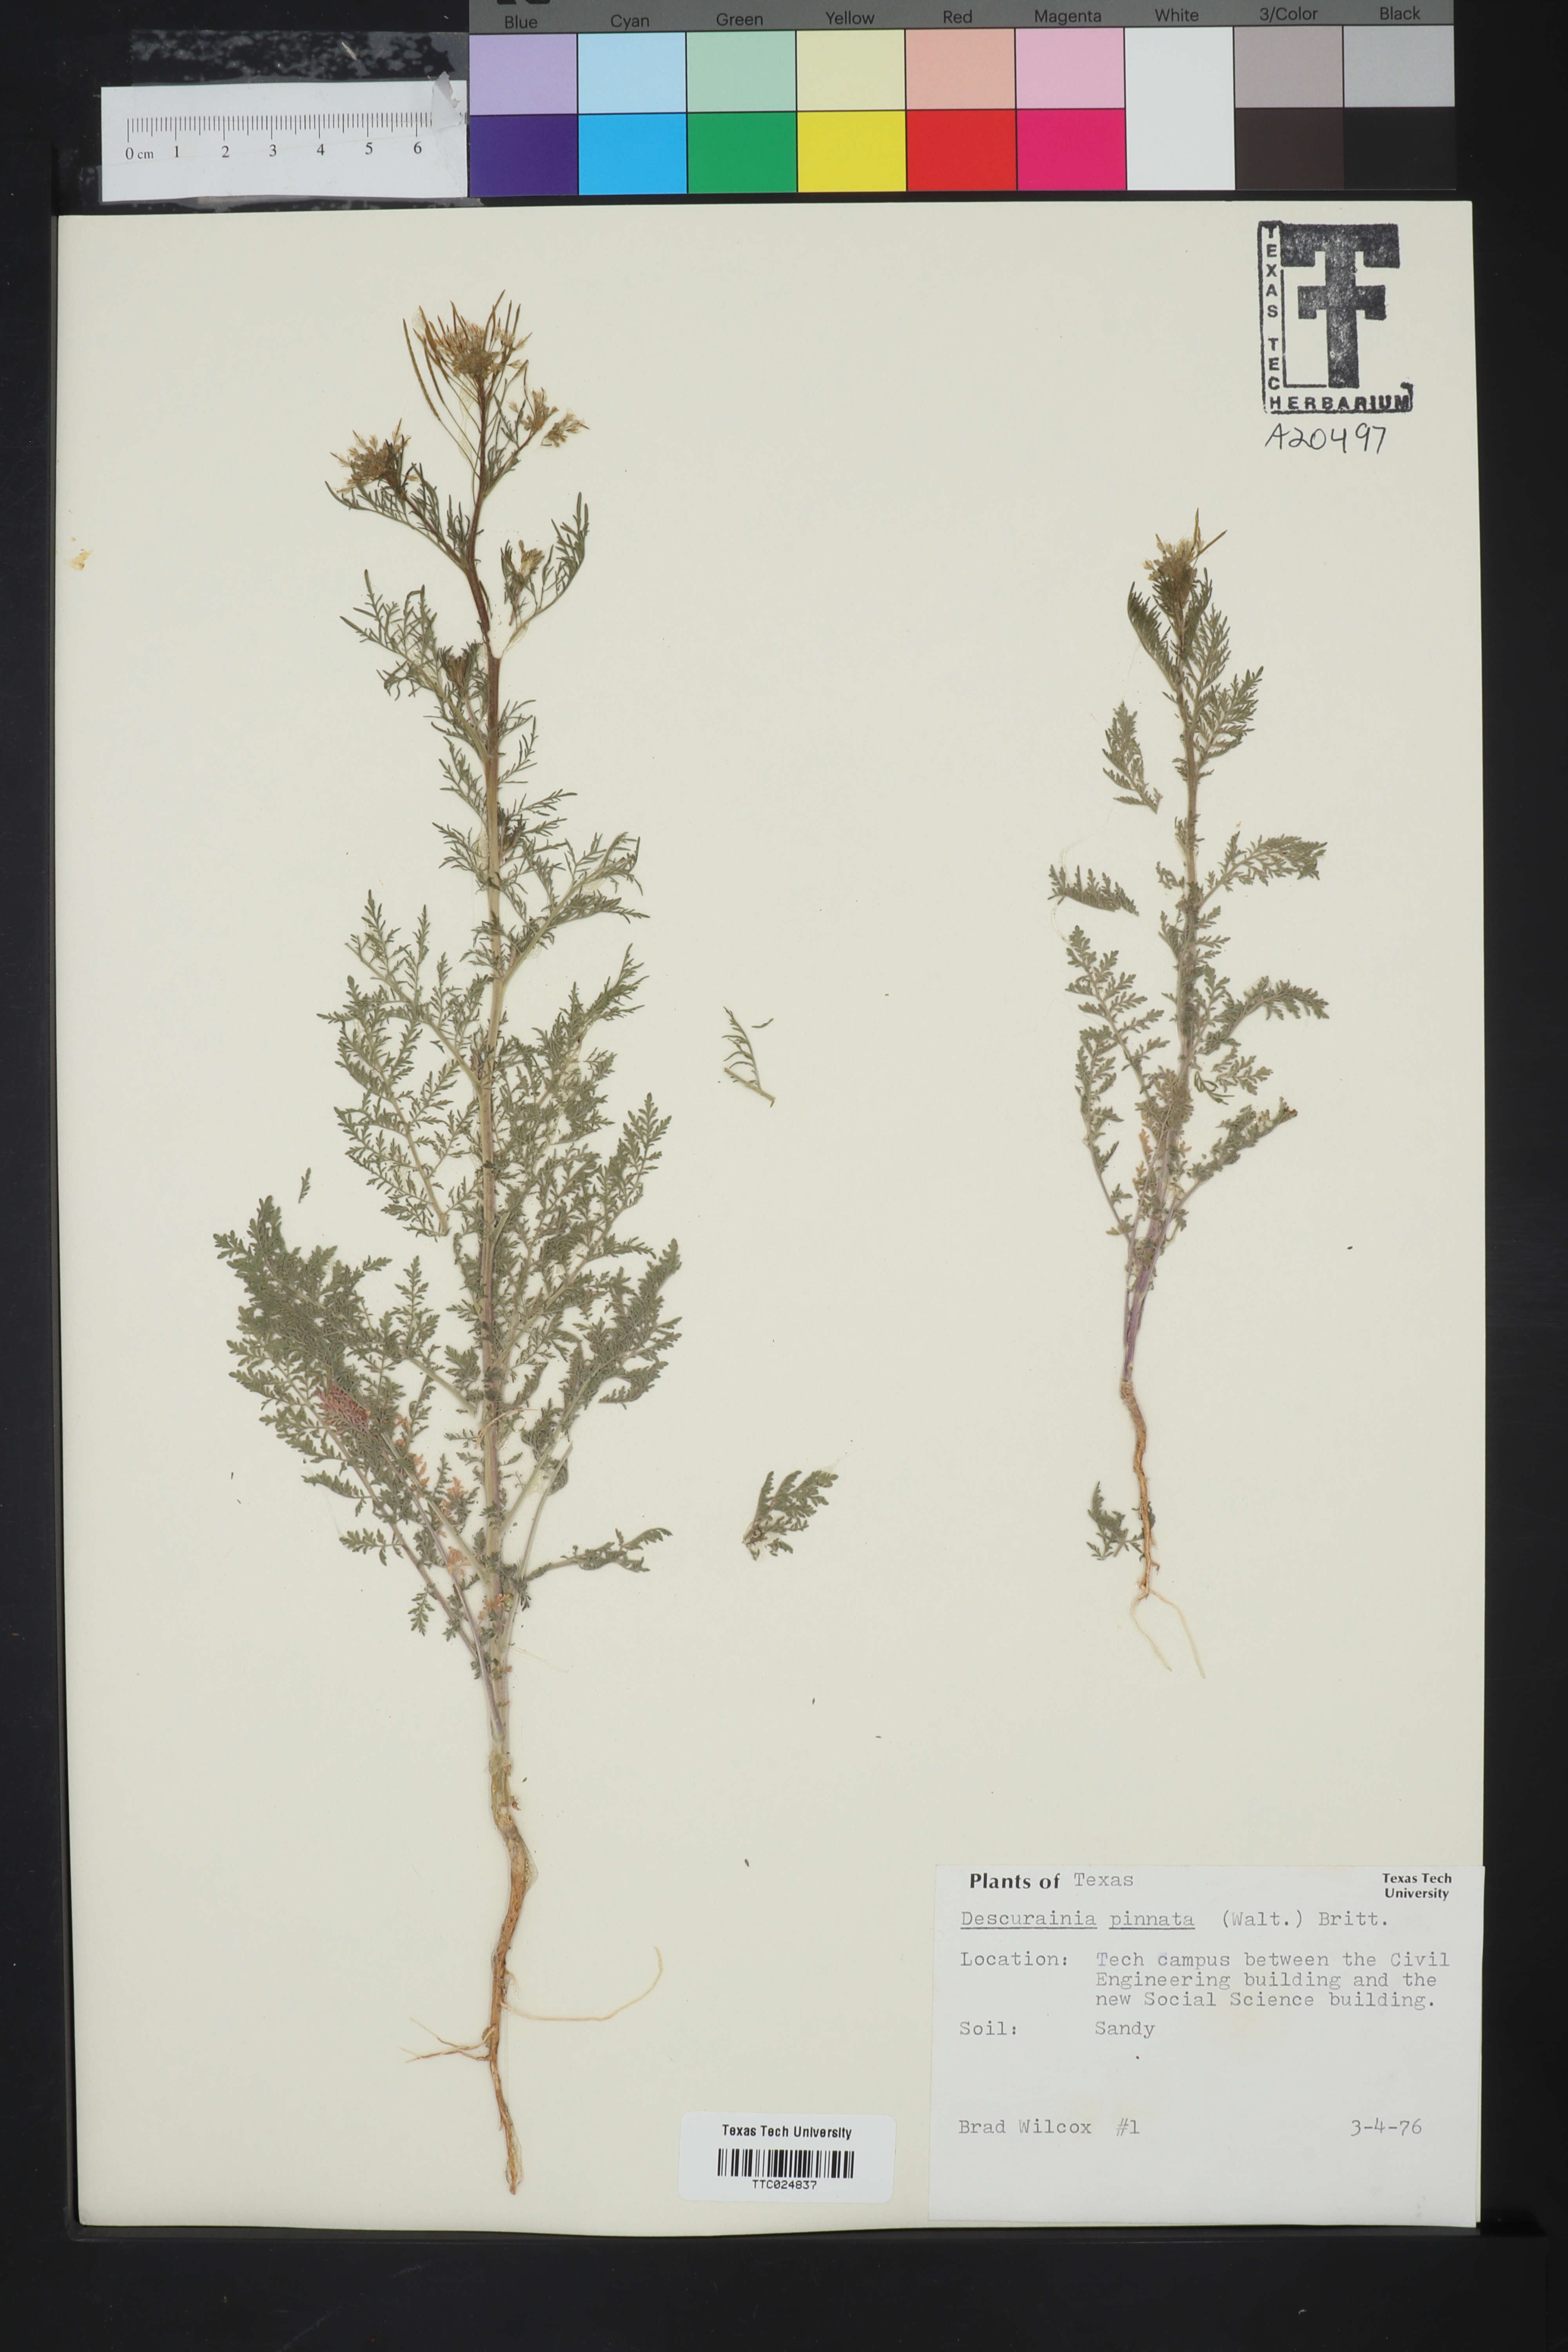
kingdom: Plantae
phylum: Tracheophyta
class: Magnoliopsida
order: Brassicales
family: Brassicaceae
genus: Descurainia
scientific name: Descurainia pinnata
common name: Western tansy mustard
